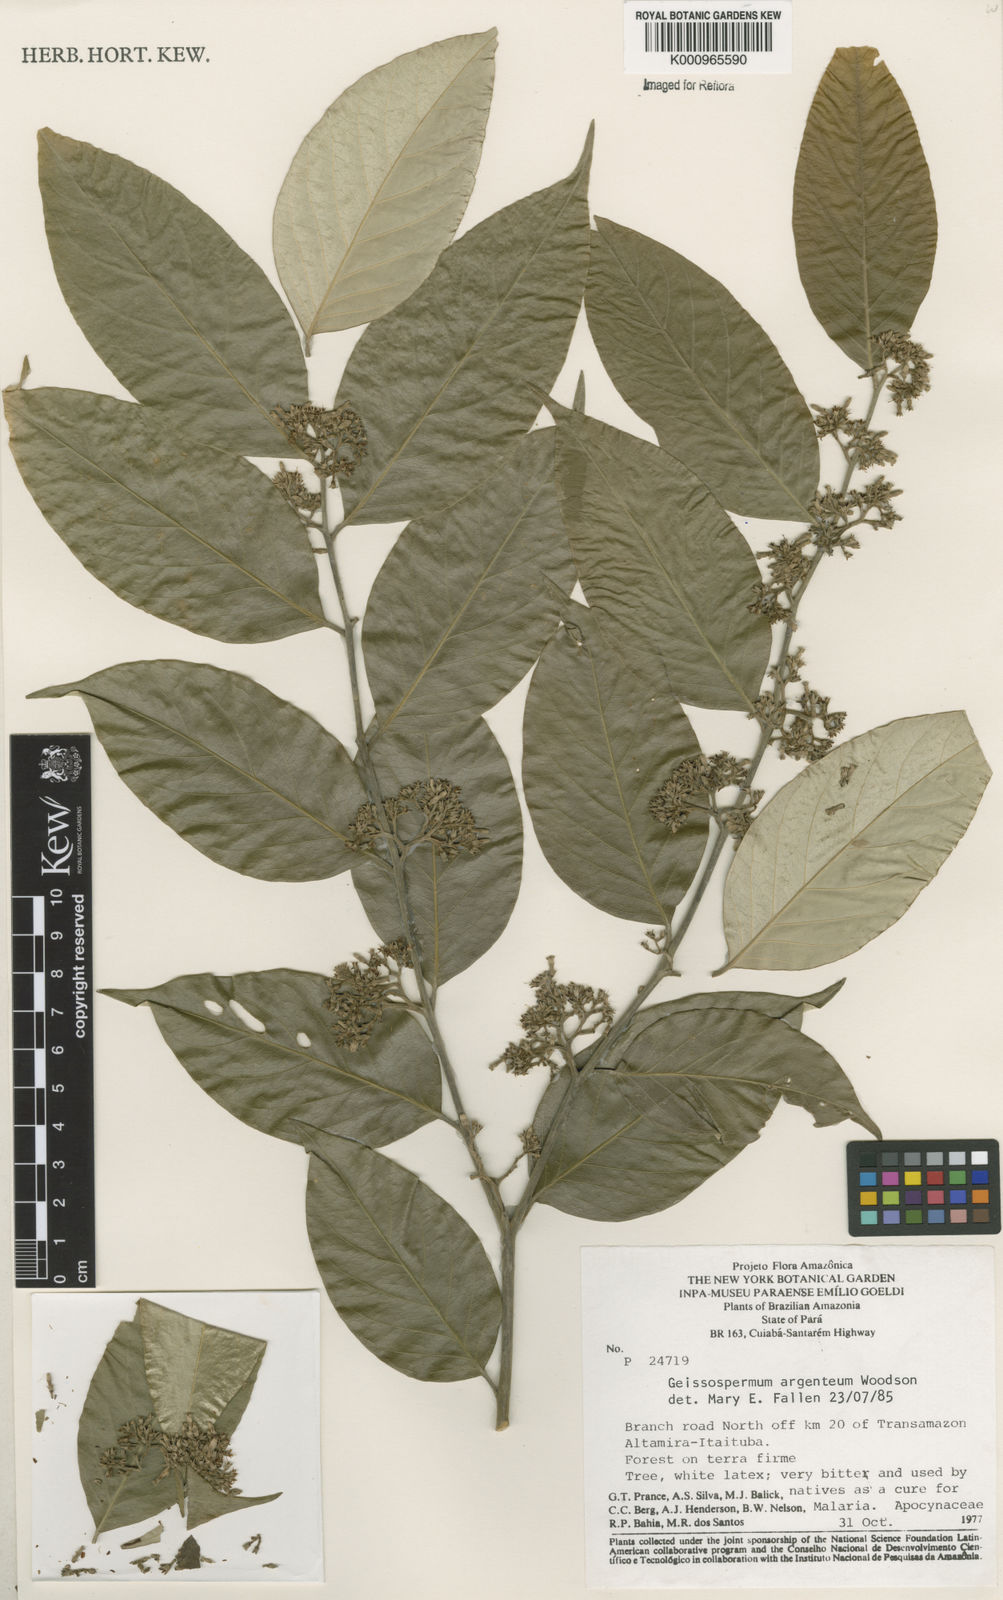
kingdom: Plantae
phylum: Tracheophyta
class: Magnoliopsida
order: Gentianales
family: Apocynaceae
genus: Geissospermum
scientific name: Geissospermum argenteum
